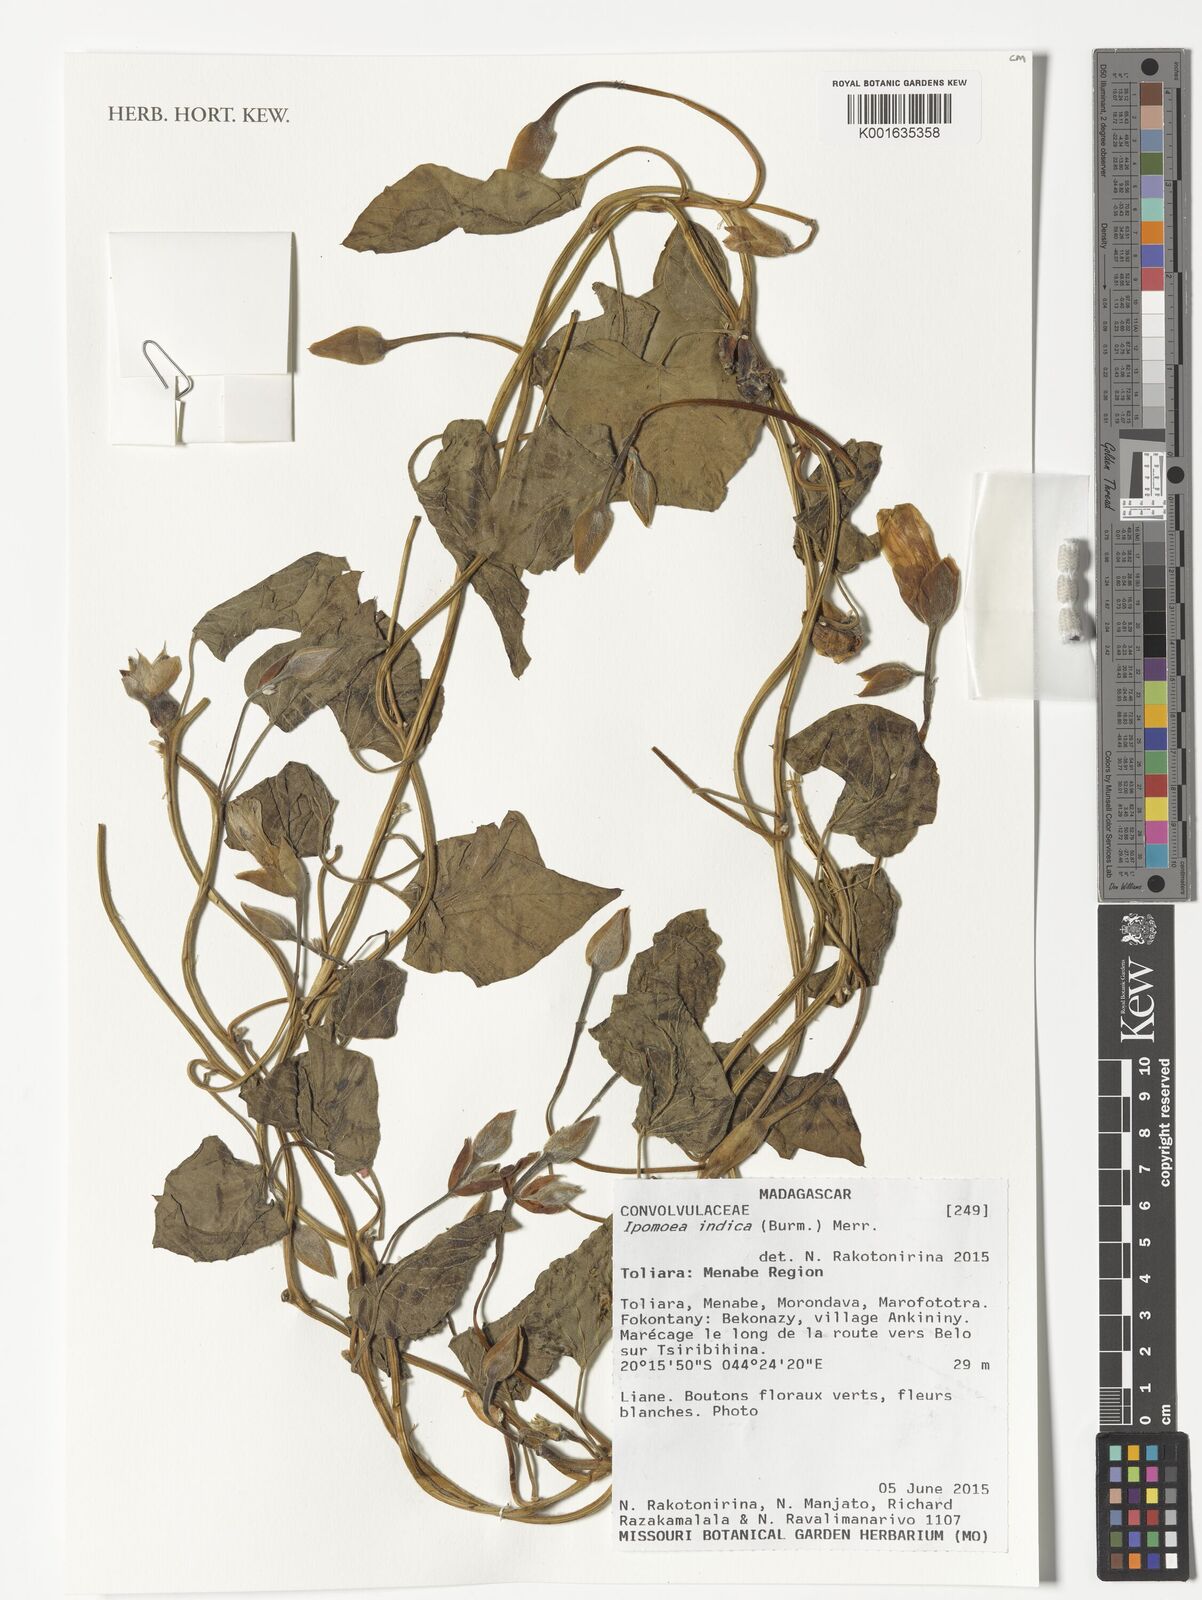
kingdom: Plantae
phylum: Tracheophyta
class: Magnoliopsida
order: Solanales
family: Convolvulaceae
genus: Ipomoea
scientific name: Ipomoea indica
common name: Blue dawnflower
